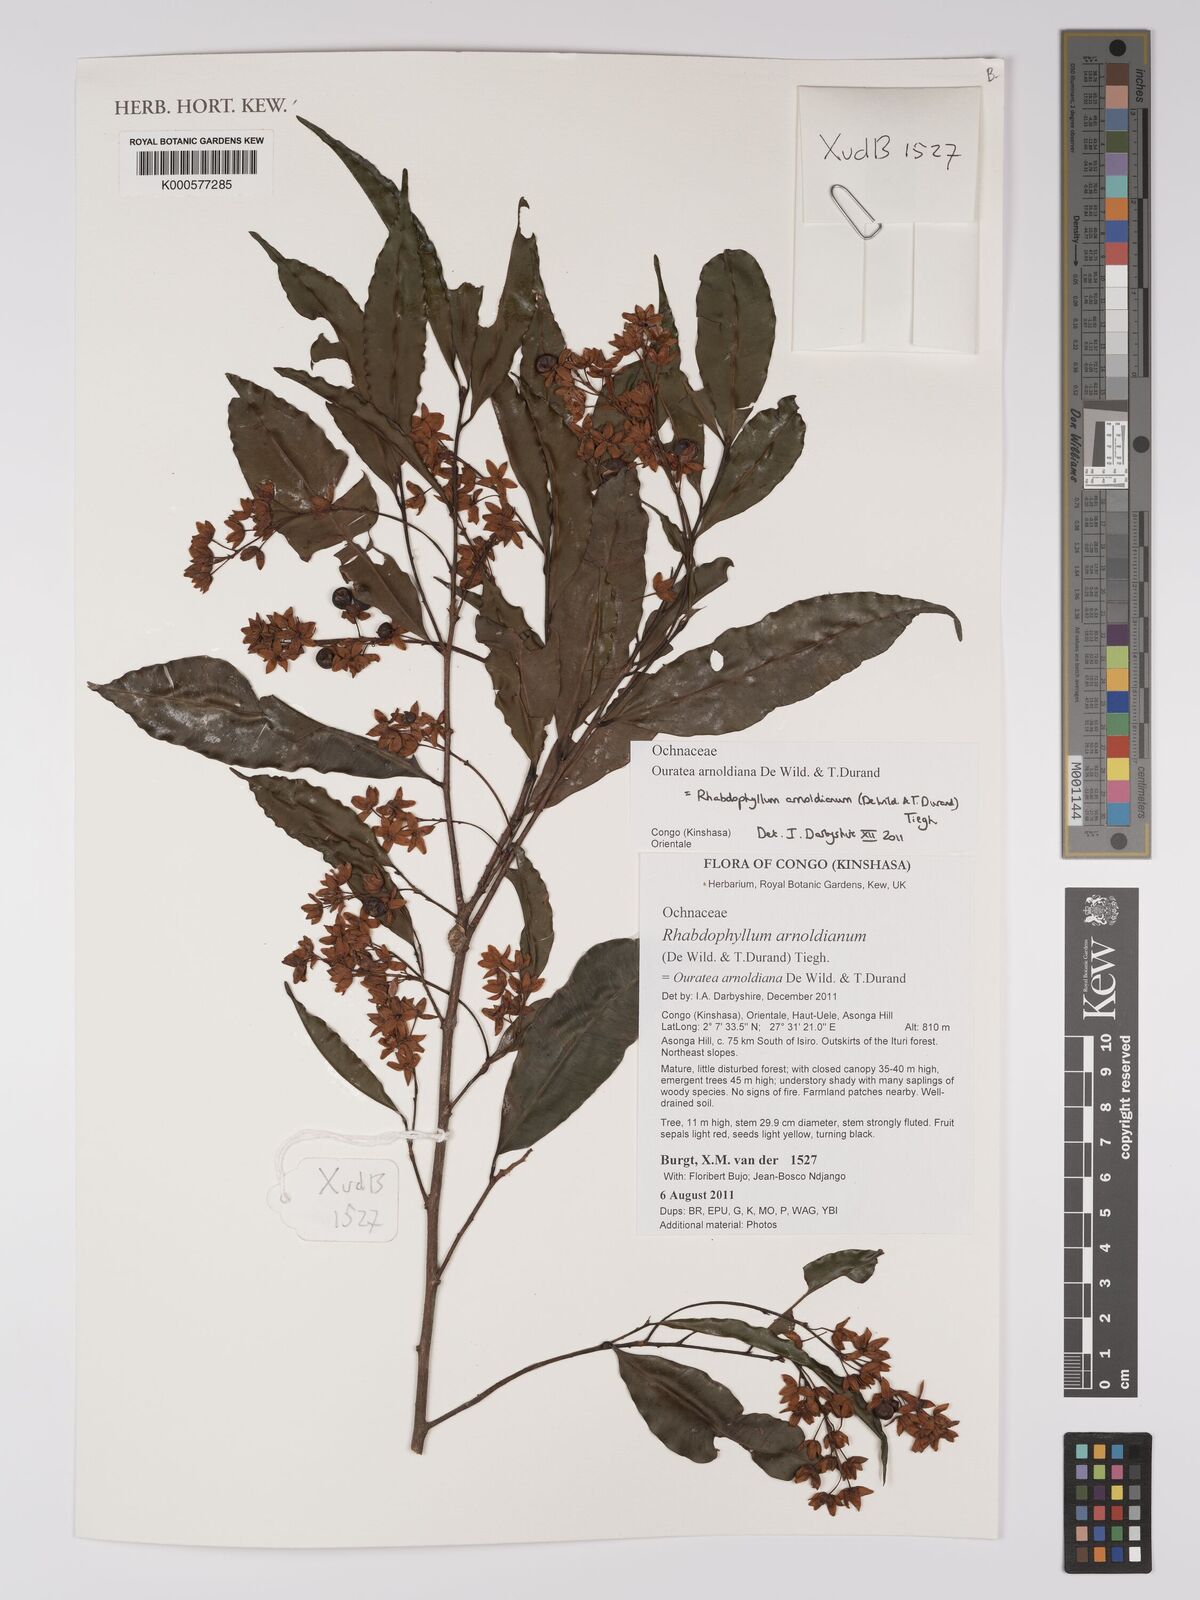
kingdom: Plantae
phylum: Tracheophyta
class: Magnoliopsida
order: Malvales
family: Dipterocarpaceae
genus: Shorea
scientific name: Shorea dasyphylla
